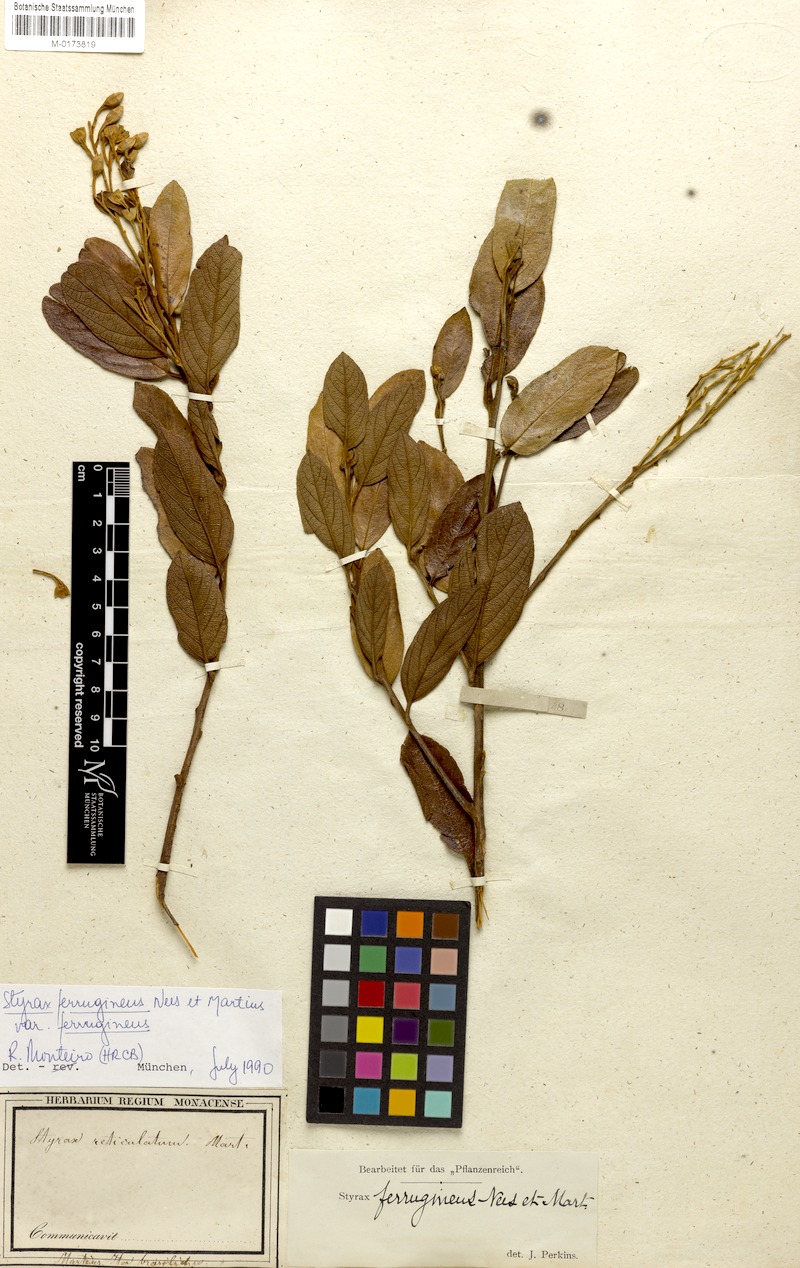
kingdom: Plantae
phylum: Tracheophyta
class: Magnoliopsida
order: Ericales
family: Styracaceae
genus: Styrax
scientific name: Styrax ferrugineus
